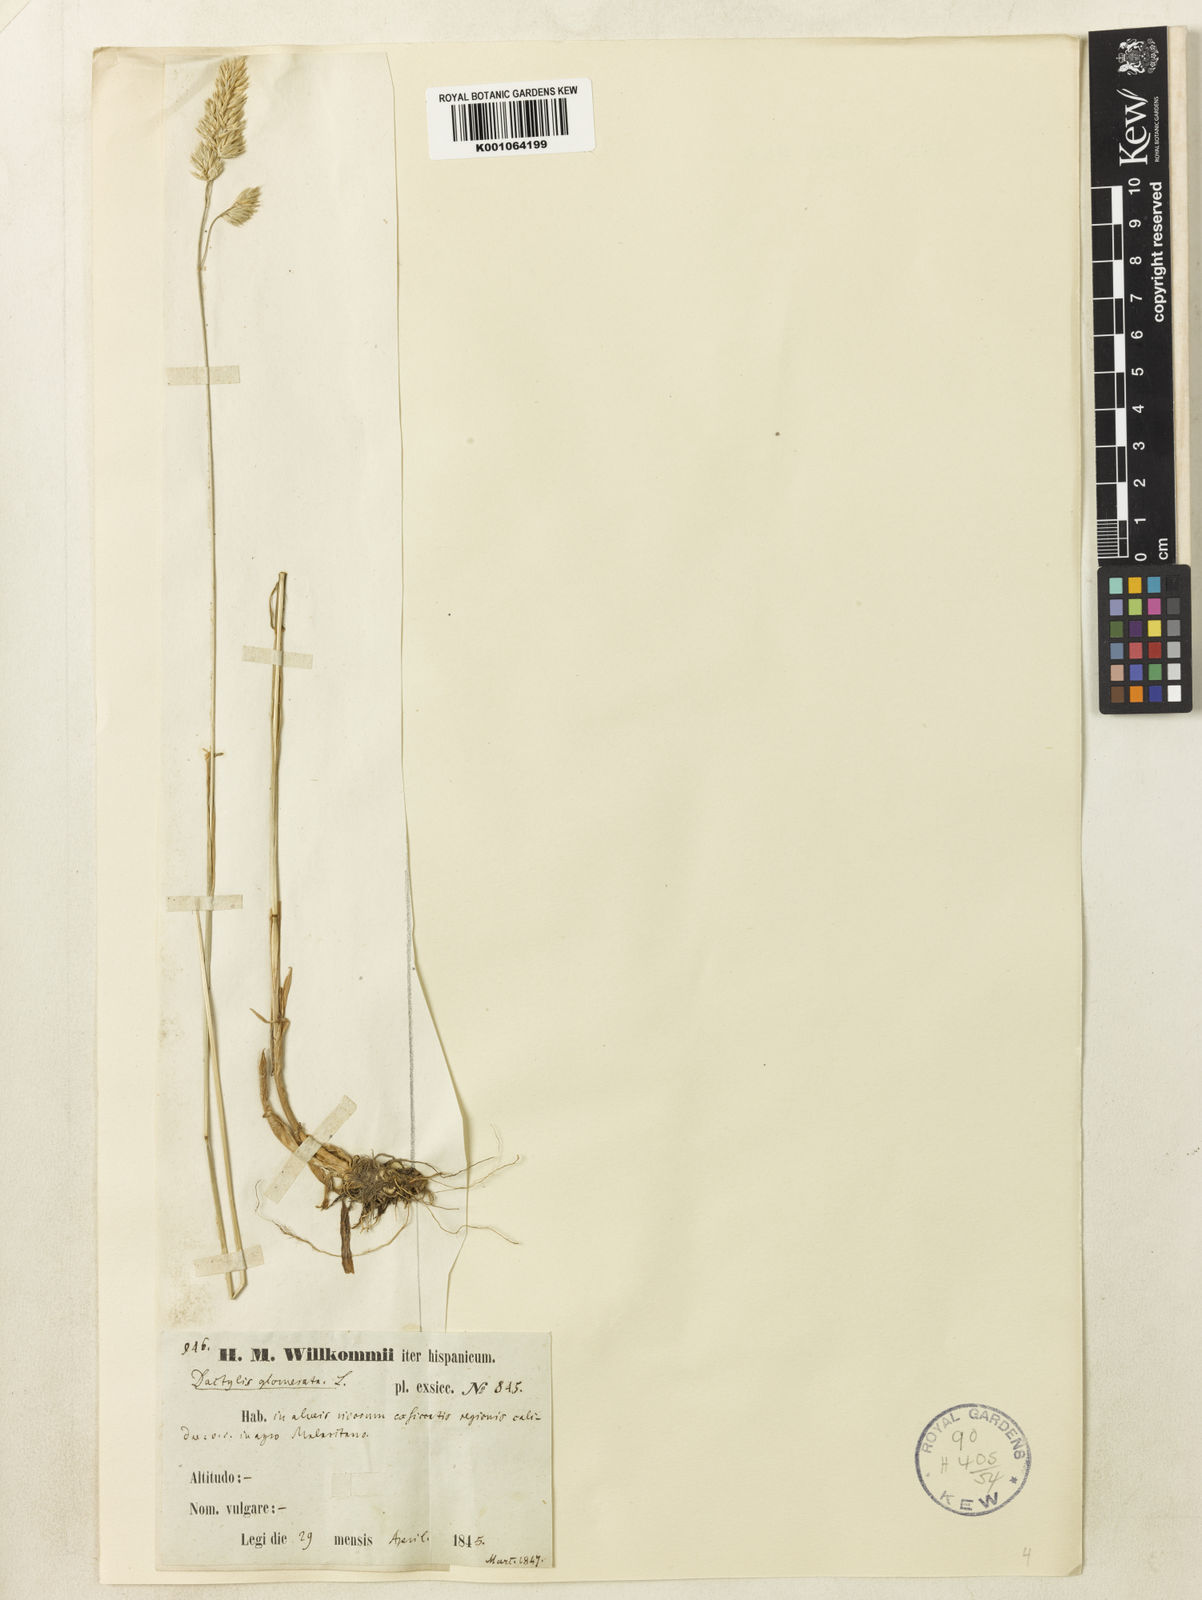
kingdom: Plantae
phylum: Tracheophyta
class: Liliopsida
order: Poales
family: Poaceae
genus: Dactylis
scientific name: Dactylis glomerata
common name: Orchardgrass
